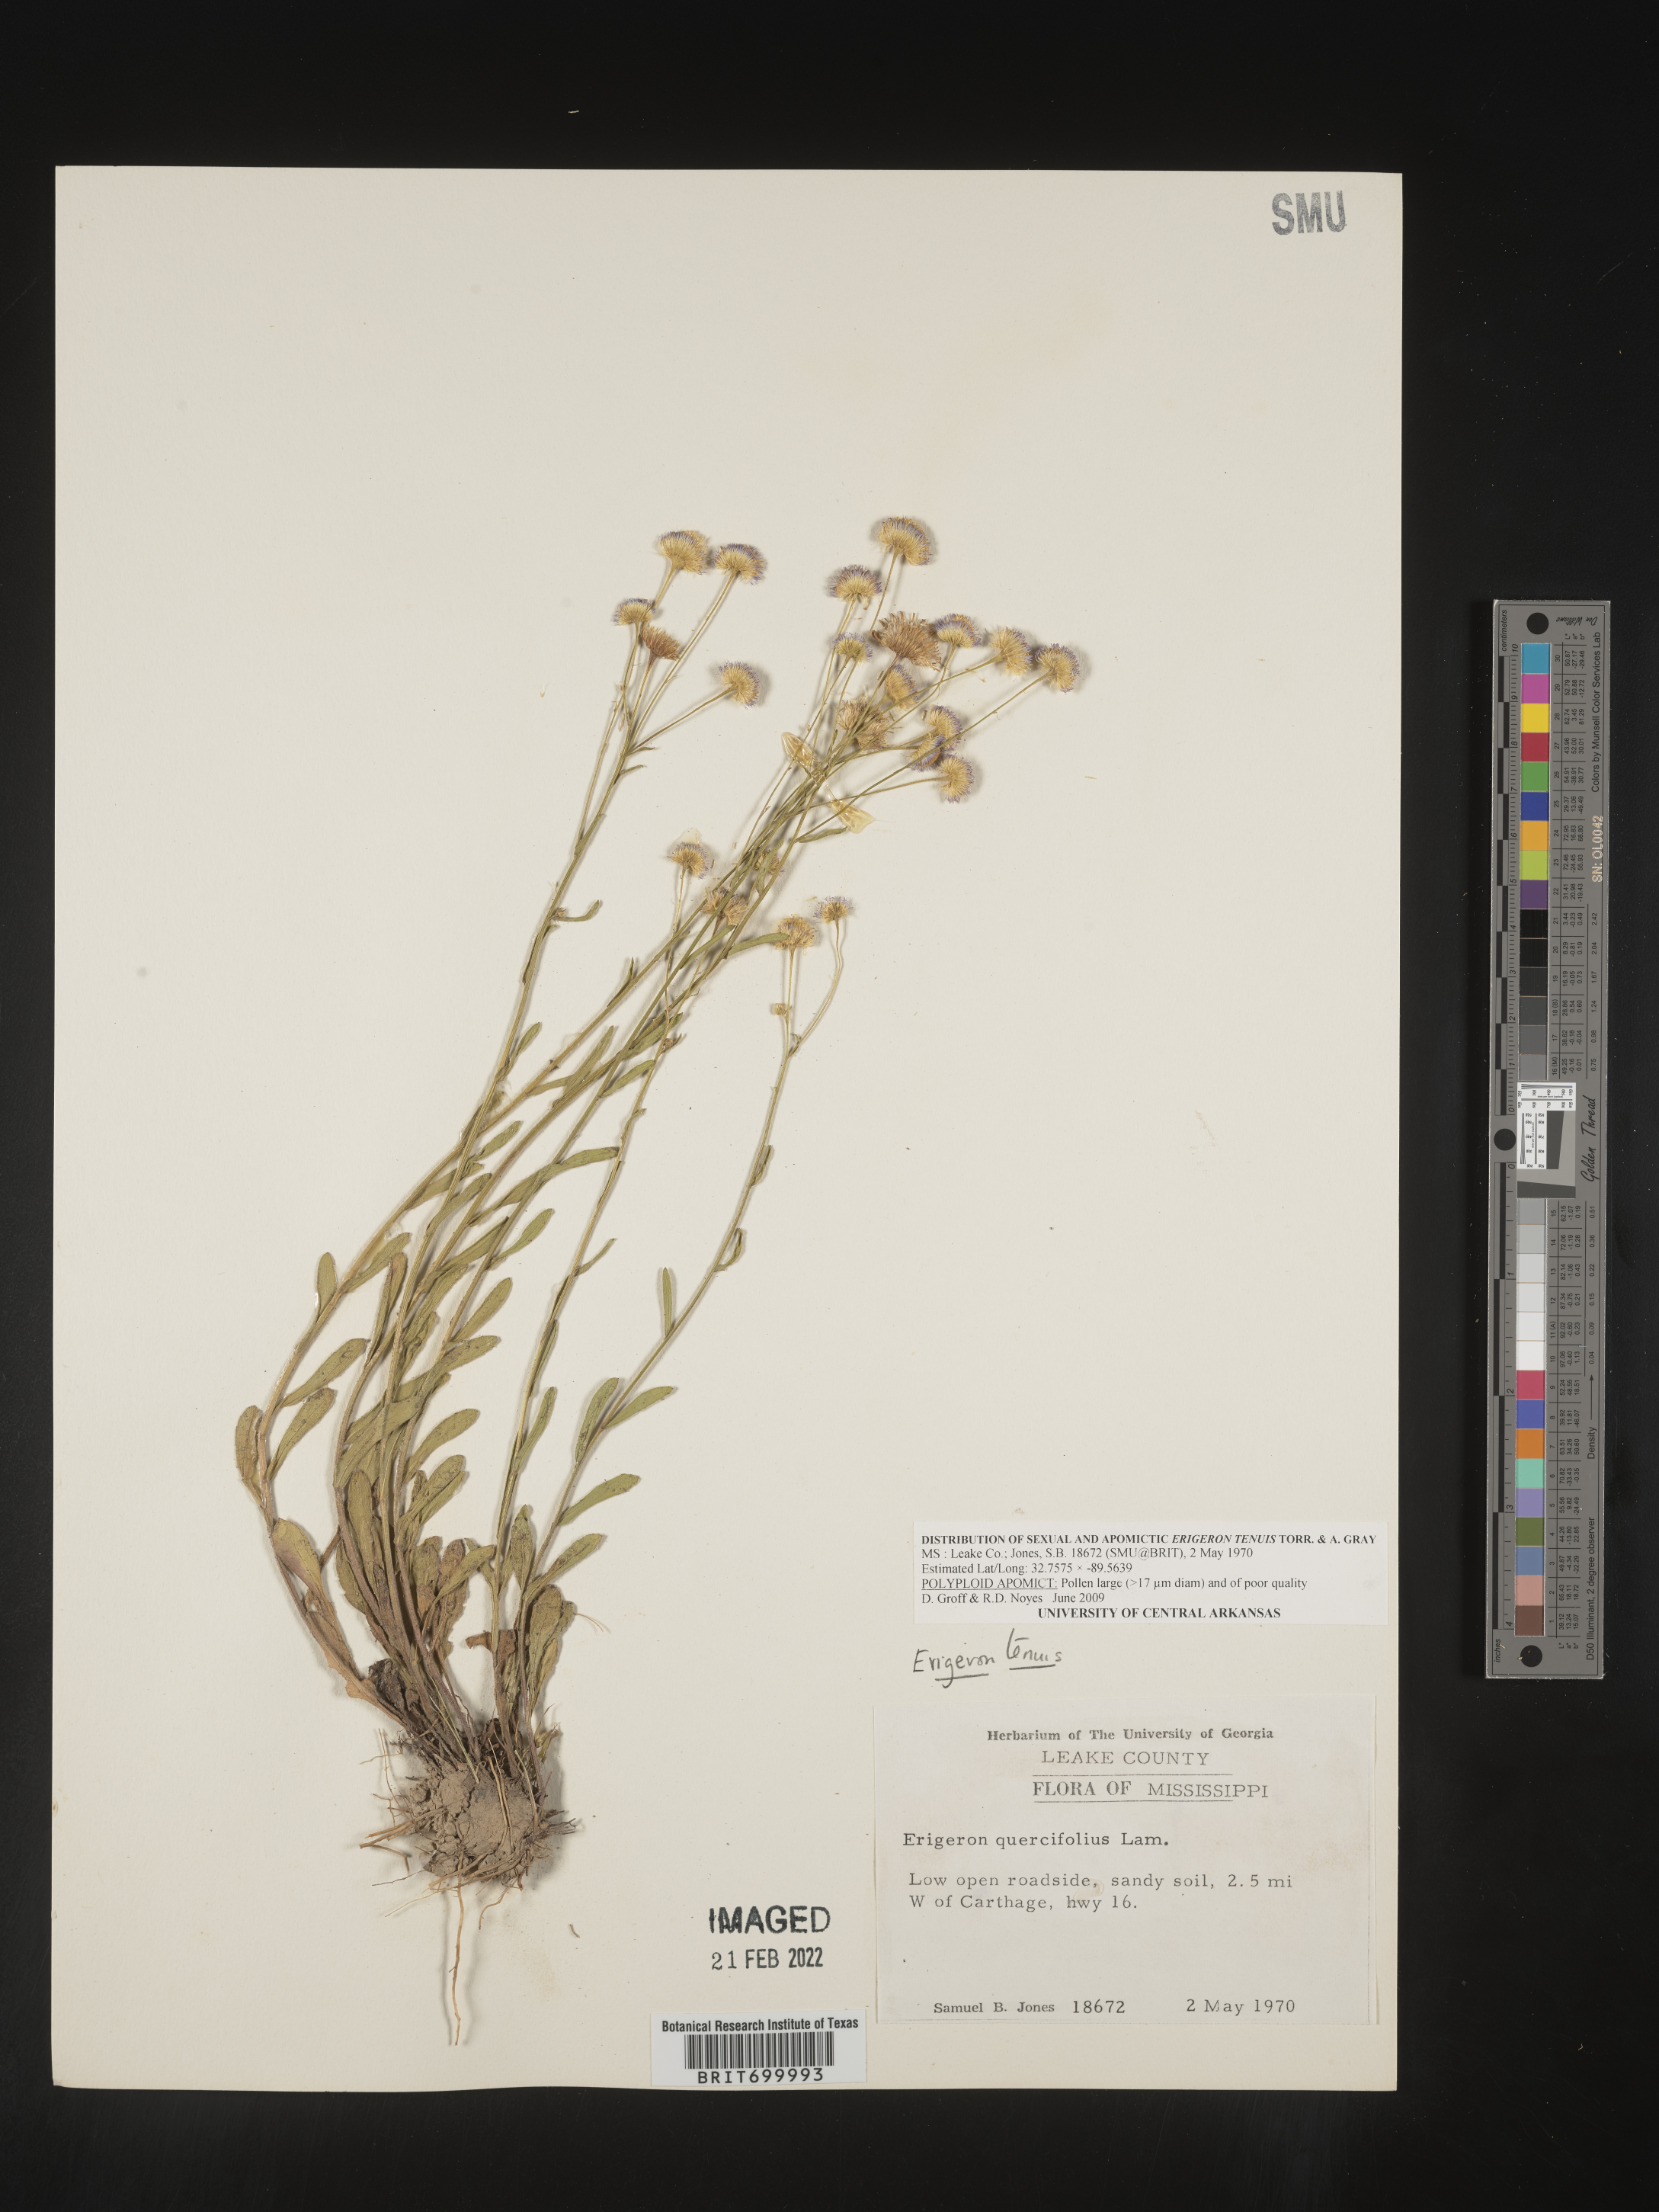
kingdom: Plantae
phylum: Tracheophyta
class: Magnoliopsida
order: Asterales
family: Asteraceae
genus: Erigeron
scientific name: Erigeron tenuis
